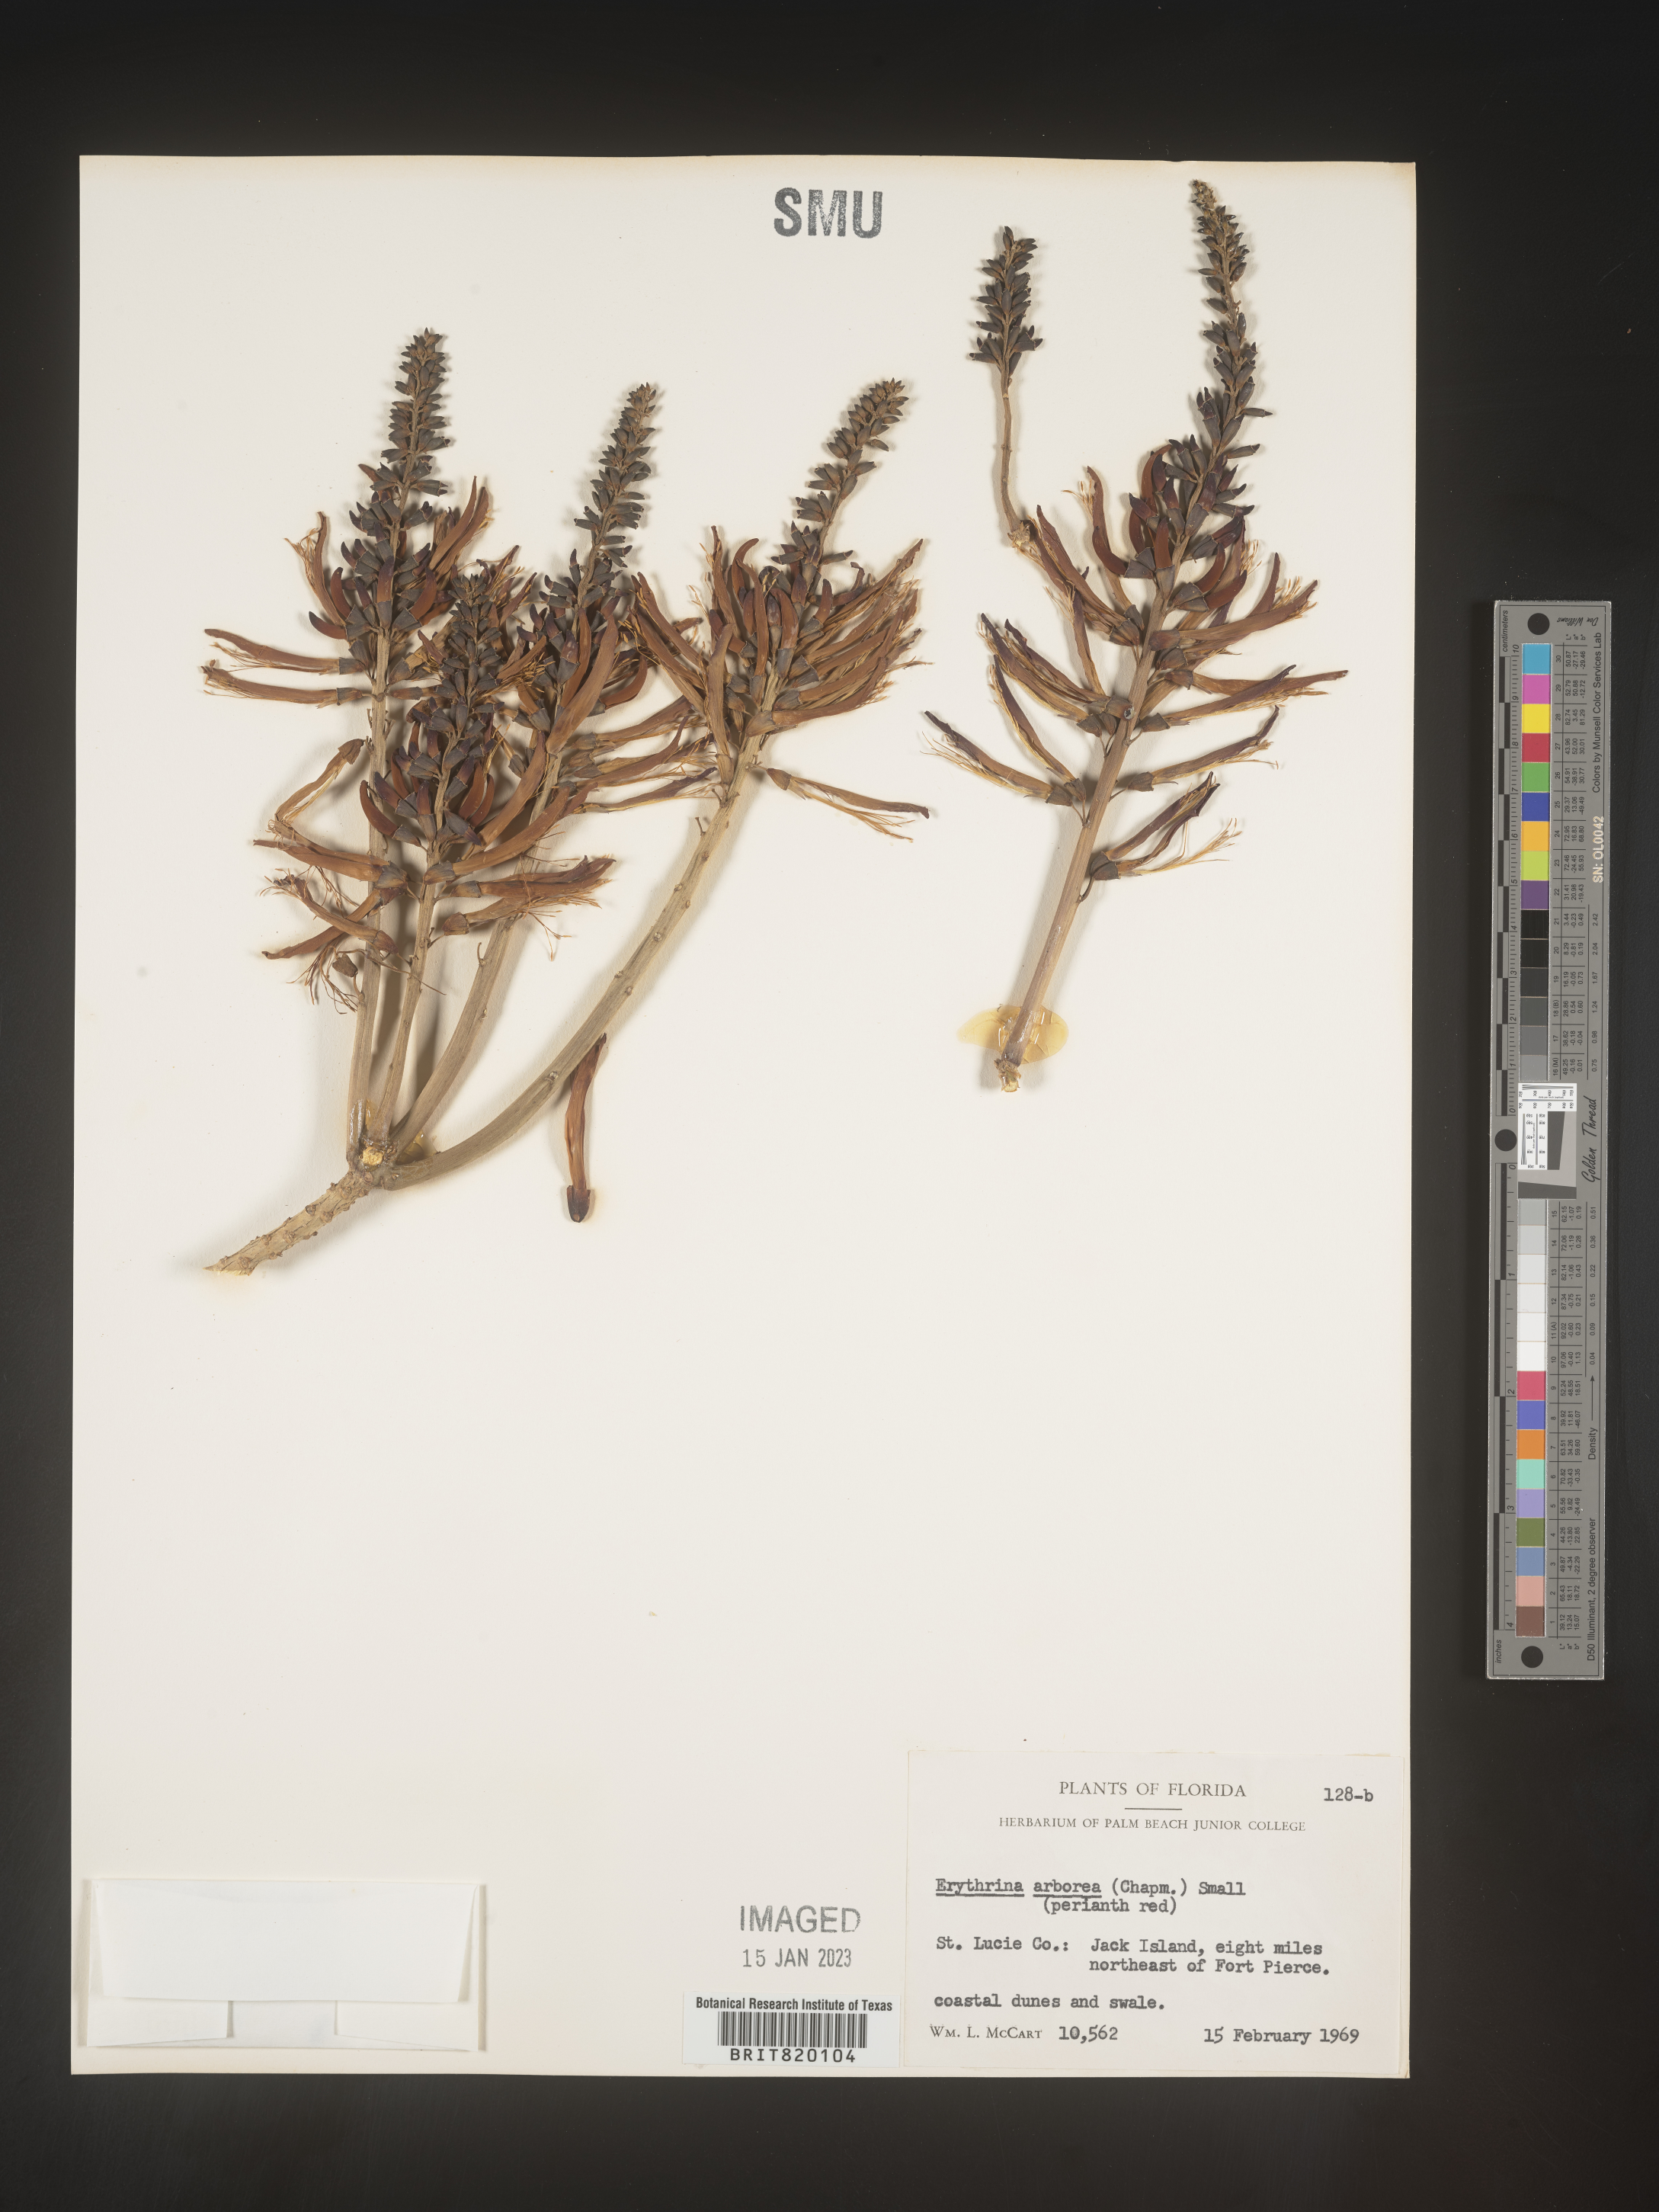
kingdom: Plantae
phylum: Tracheophyta
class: Magnoliopsida
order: Fabales
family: Fabaceae
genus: Erythrina
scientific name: Erythrina herbacea
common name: Coral-bean
